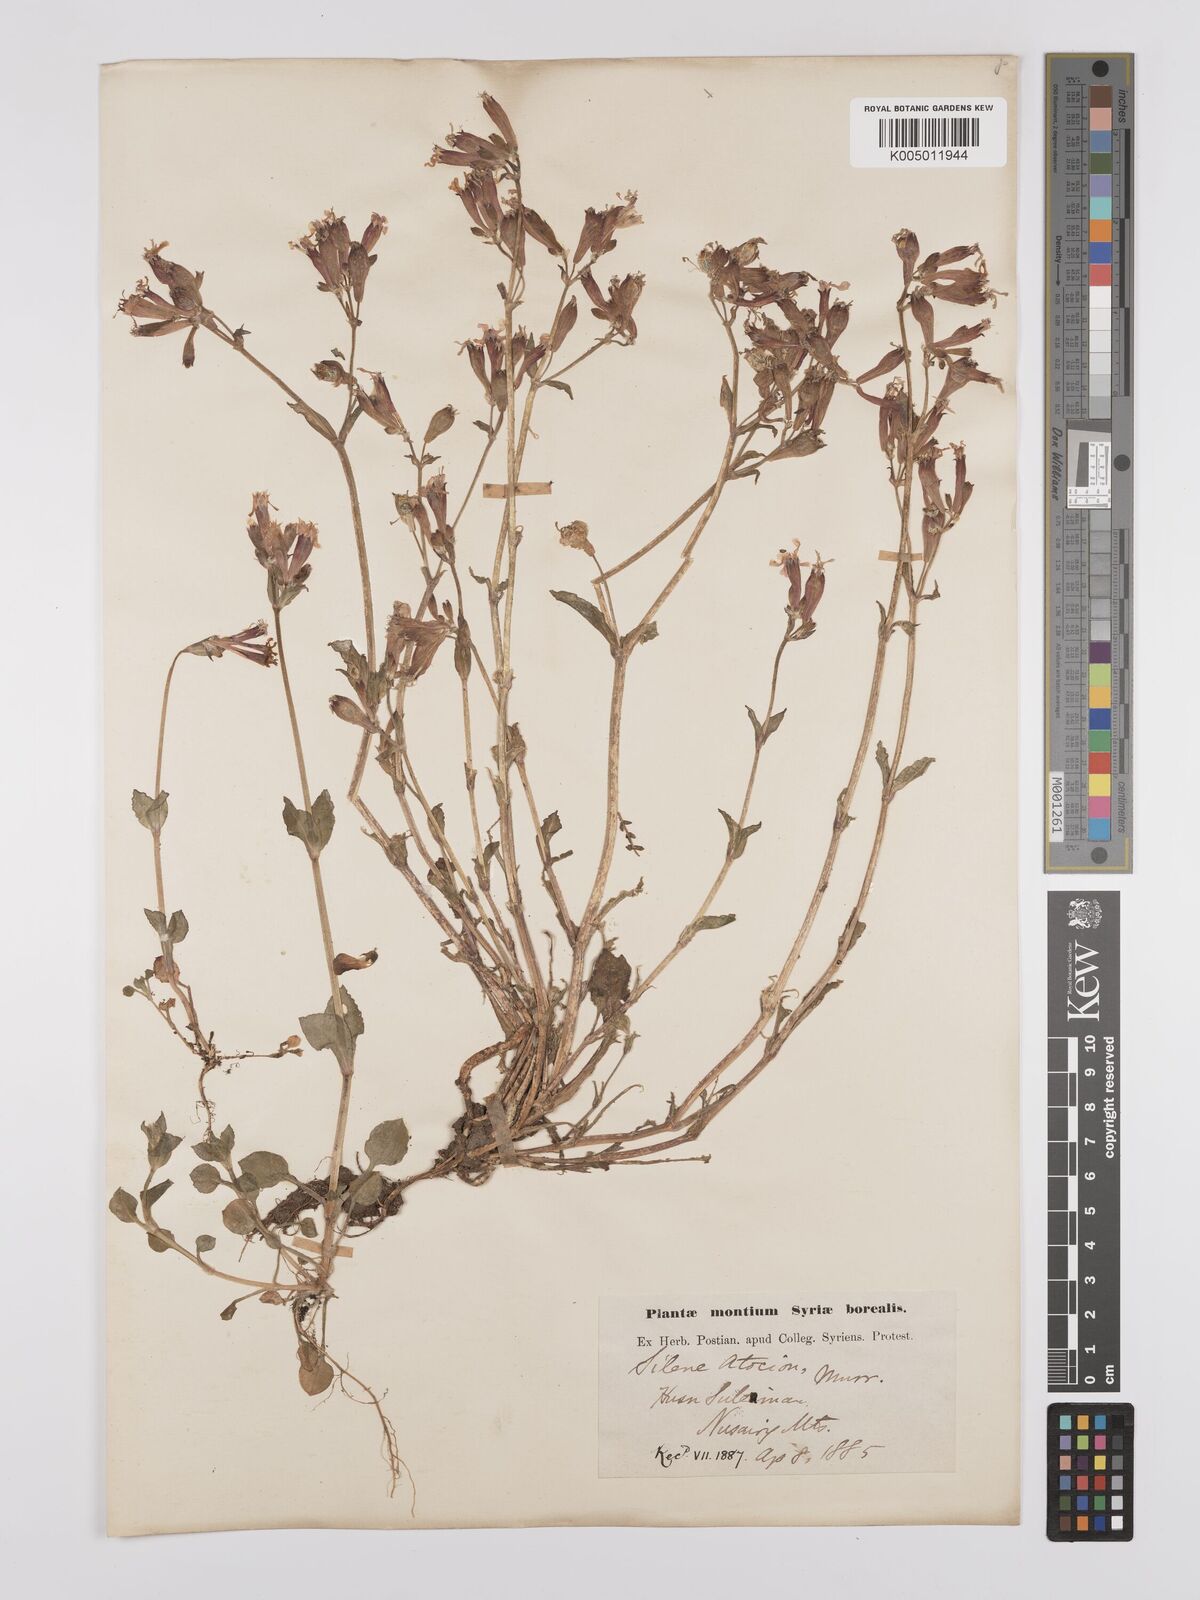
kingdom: Plantae
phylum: Tracheophyta
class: Magnoliopsida
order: Caryophyllales
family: Caryophyllaceae
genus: Silene
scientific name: Silene aegyptiaca
